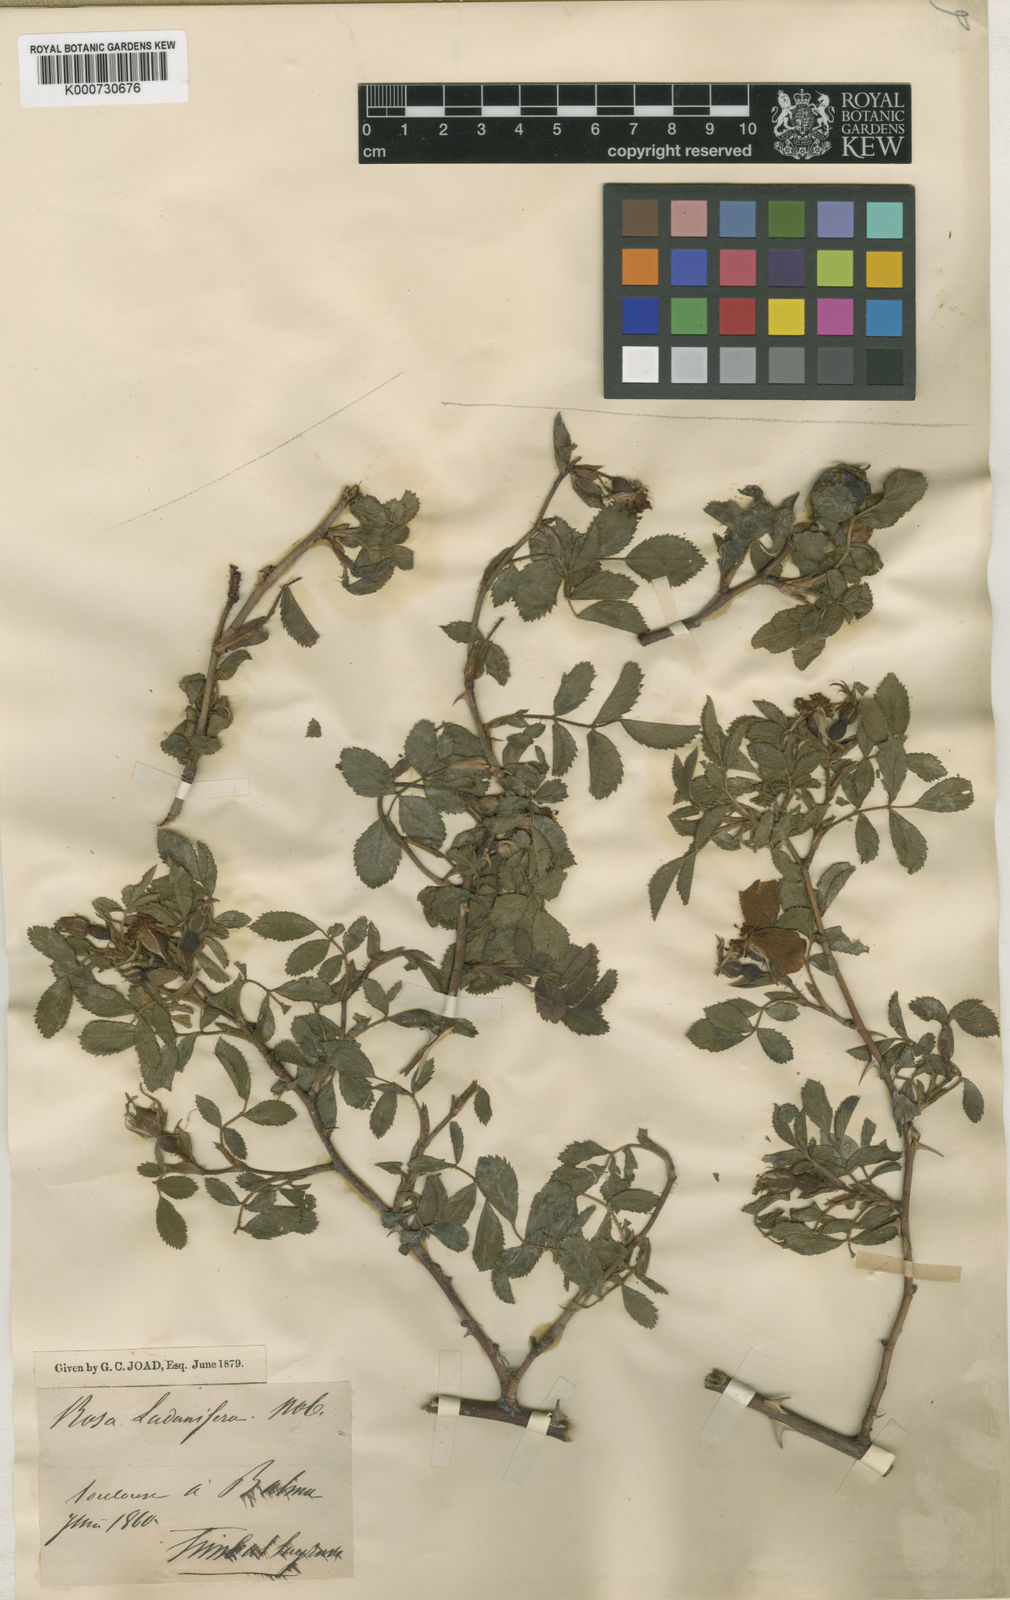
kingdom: Plantae
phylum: Tracheophyta
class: Magnoliopsida
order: Rosales
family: Rosaceae
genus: Rosa
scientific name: Rosa agrestis
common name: Fieldbriar
